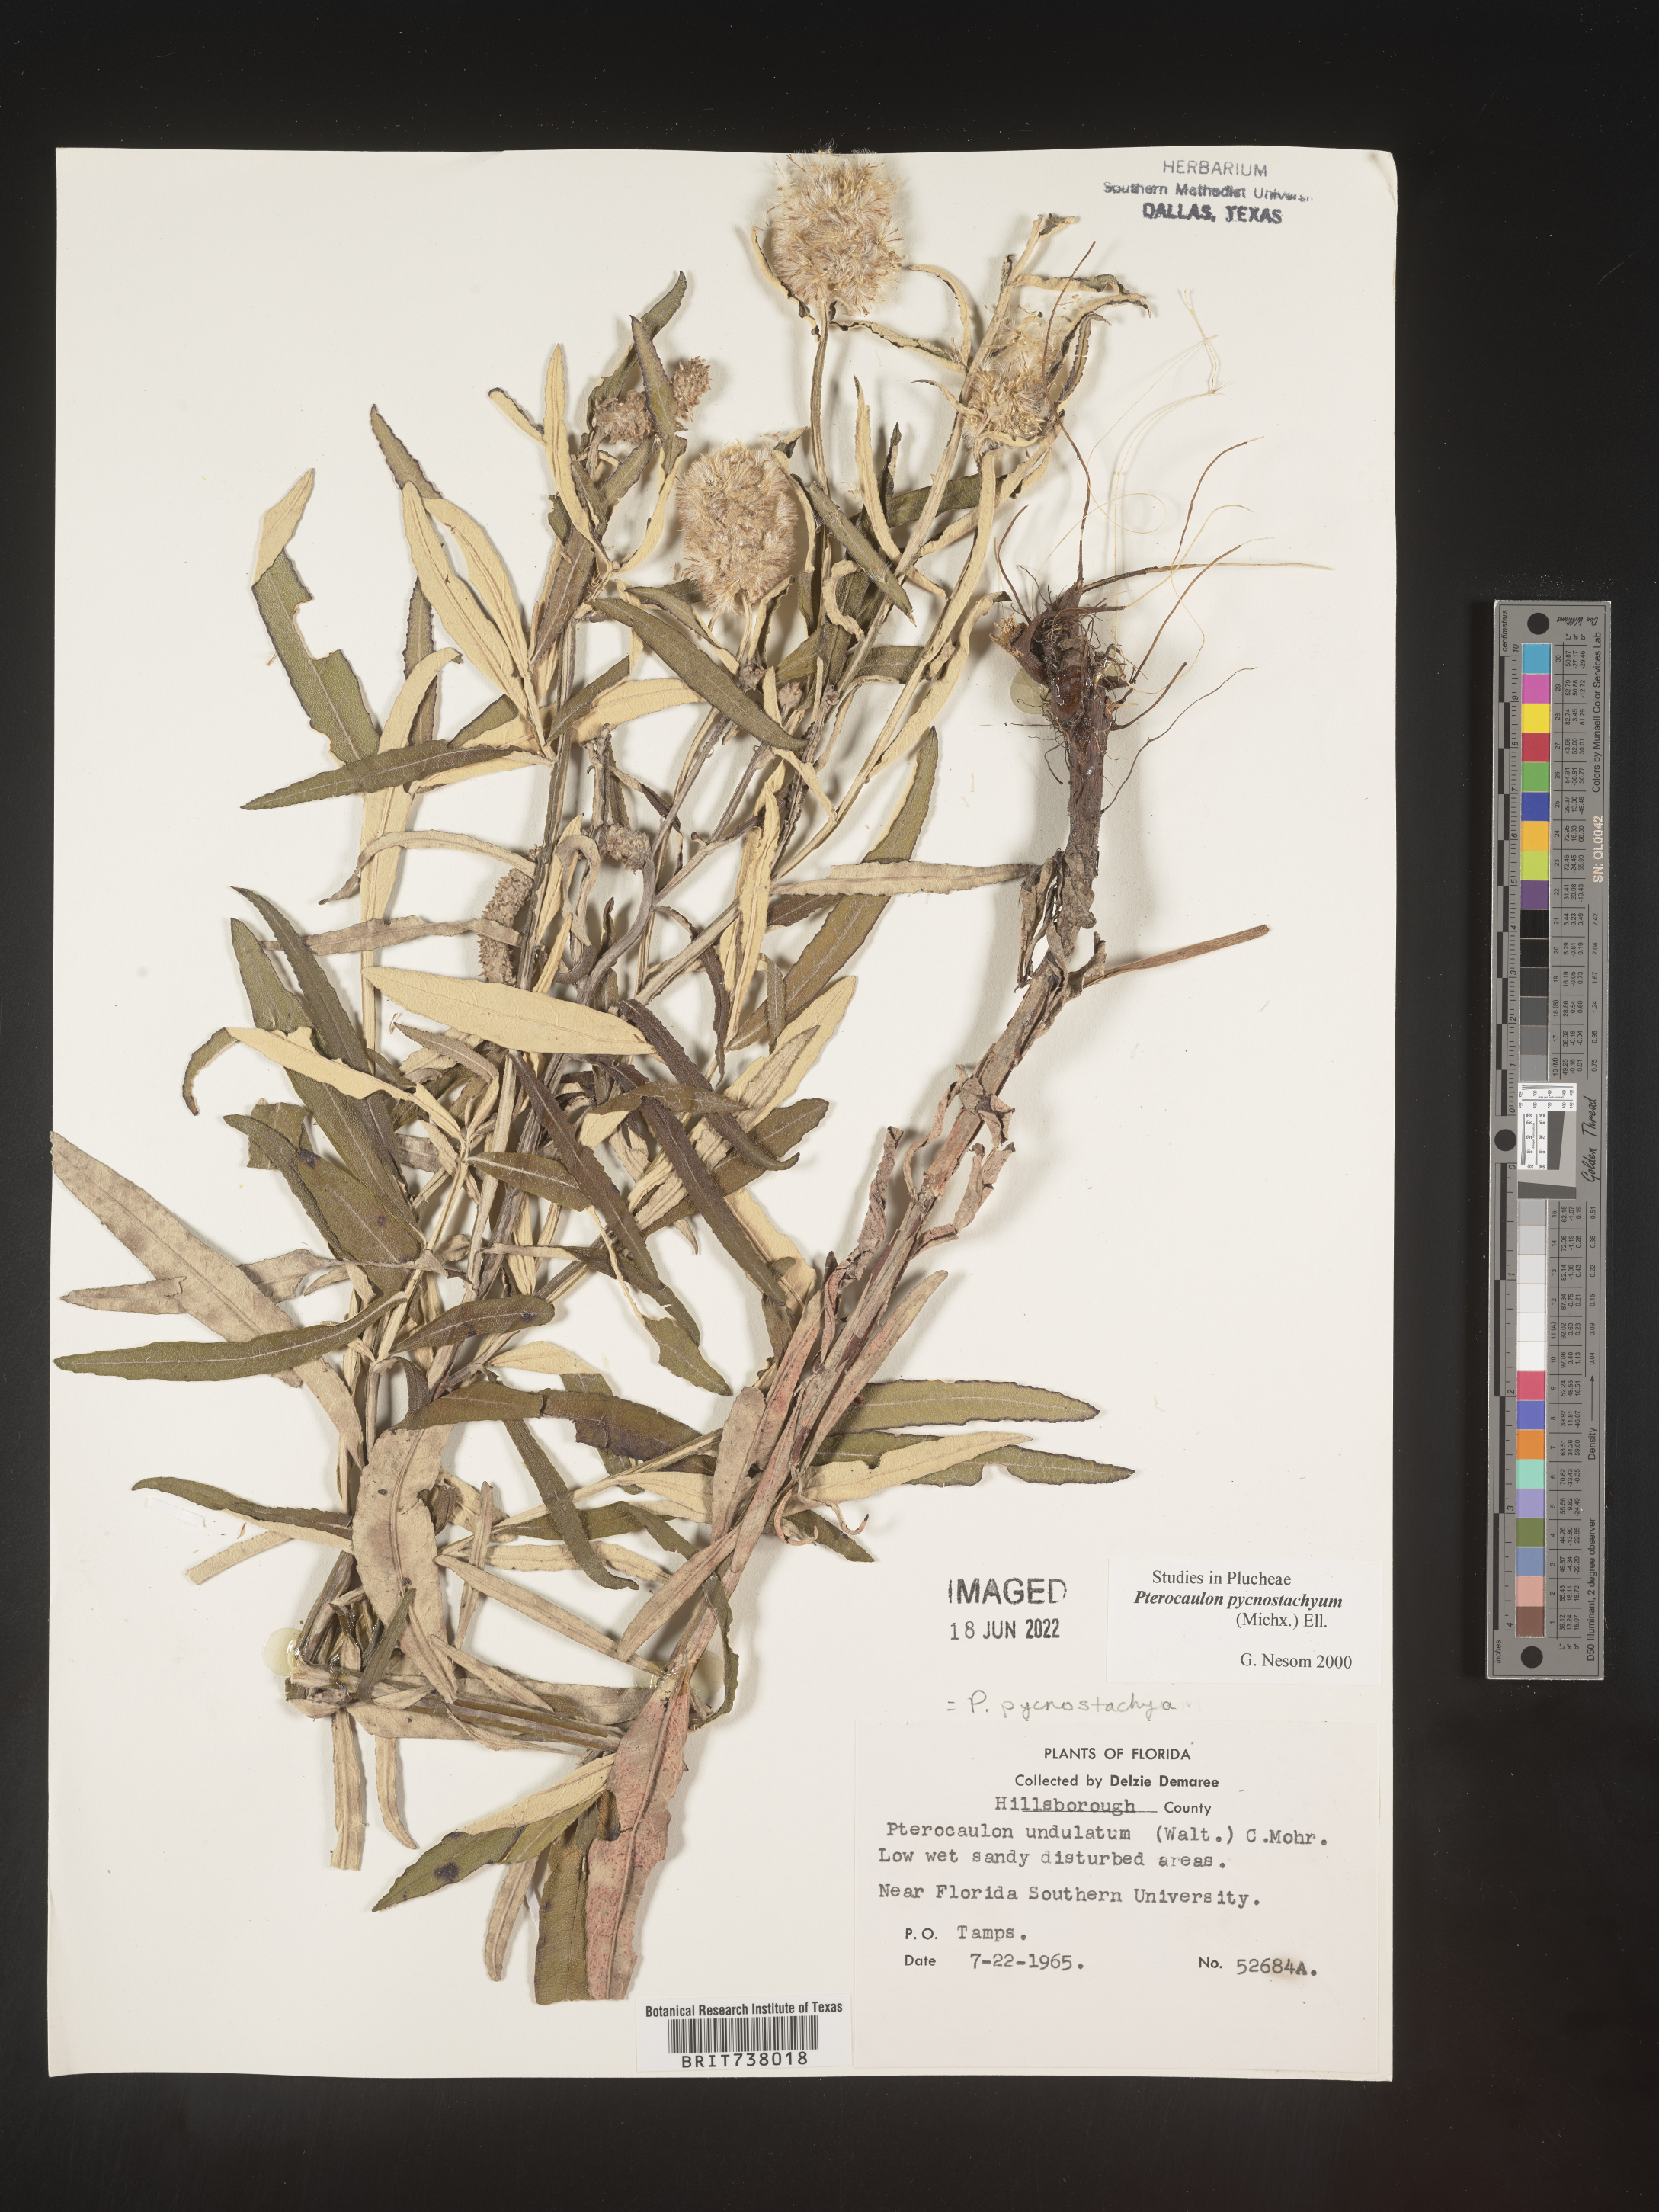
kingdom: Plantae
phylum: Tracheophyta
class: Magnoliopsida
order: Asterales
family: Asteraceae
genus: Pterocaulon
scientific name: Pterocaulon pycnostachyum
